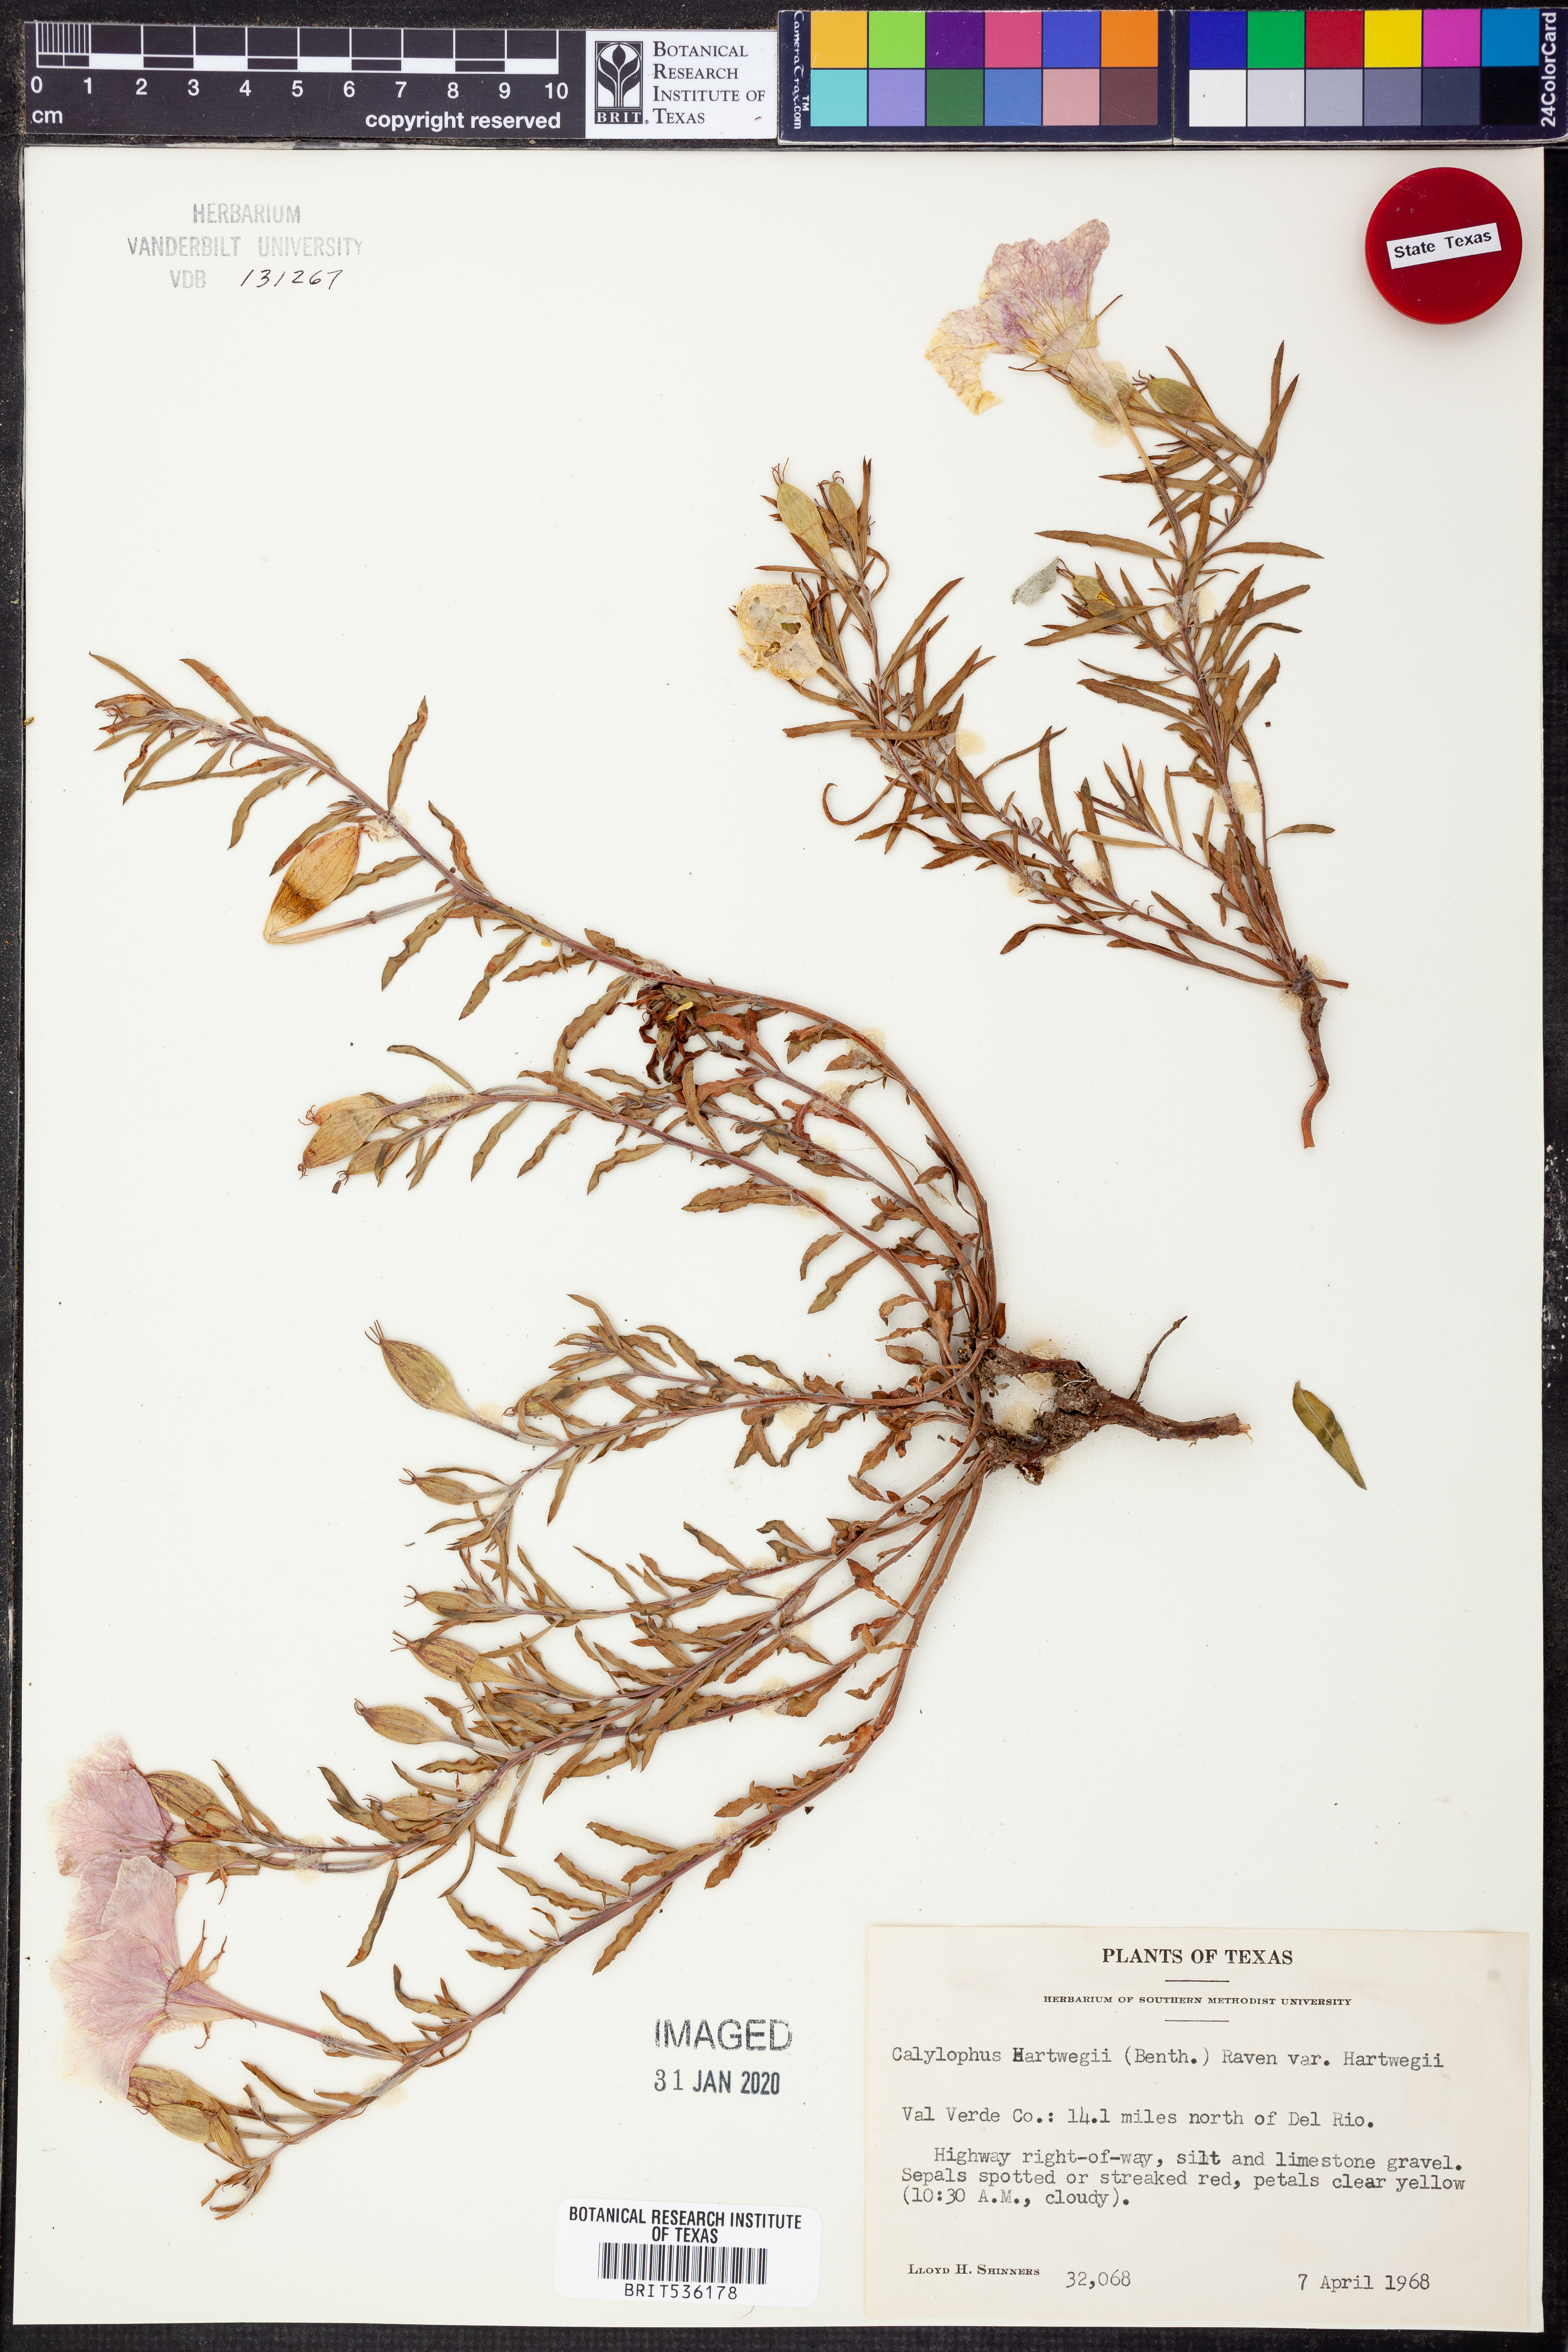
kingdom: Plantae
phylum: Tracheophyta
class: Magnoliopsida
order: Myrtales
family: Onagraceae
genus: Oenothera
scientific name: Oenothera hartwegii
